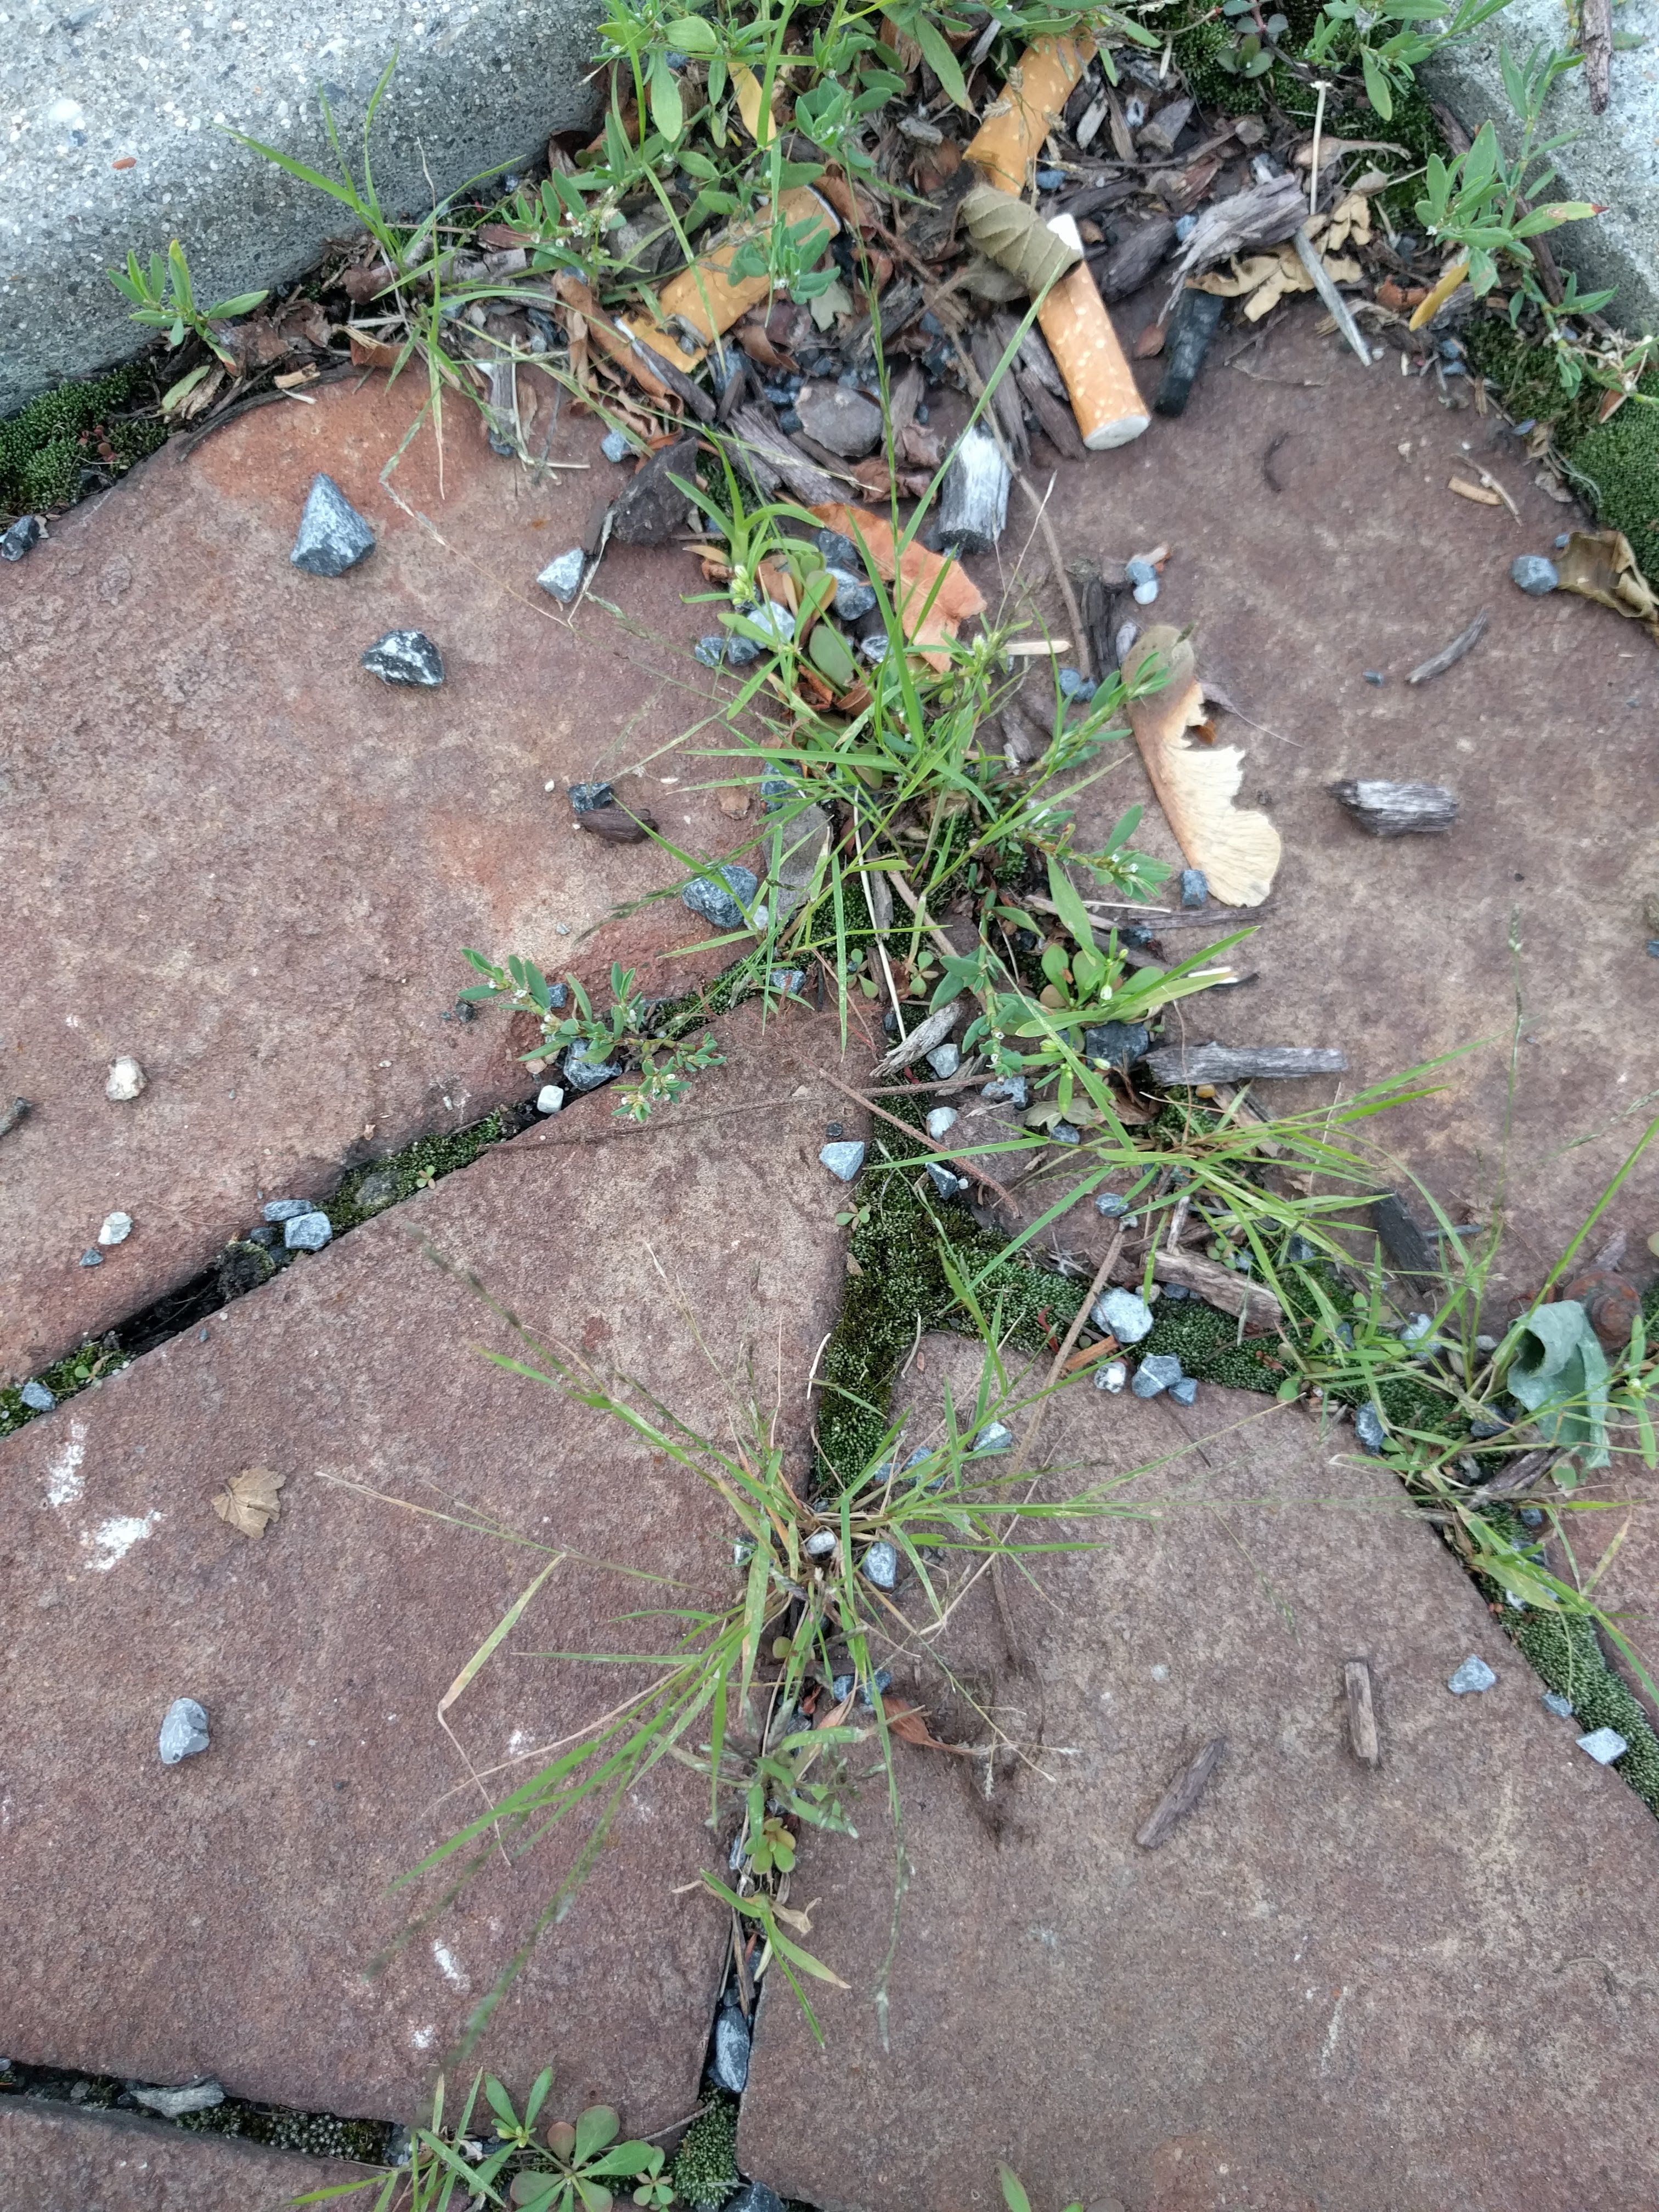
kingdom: Plantae
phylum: Tracheophyta
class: Liliopsida
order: Poales
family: Poaceae
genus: Eragrostis
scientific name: Eragrostis minor
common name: Small love-grass
